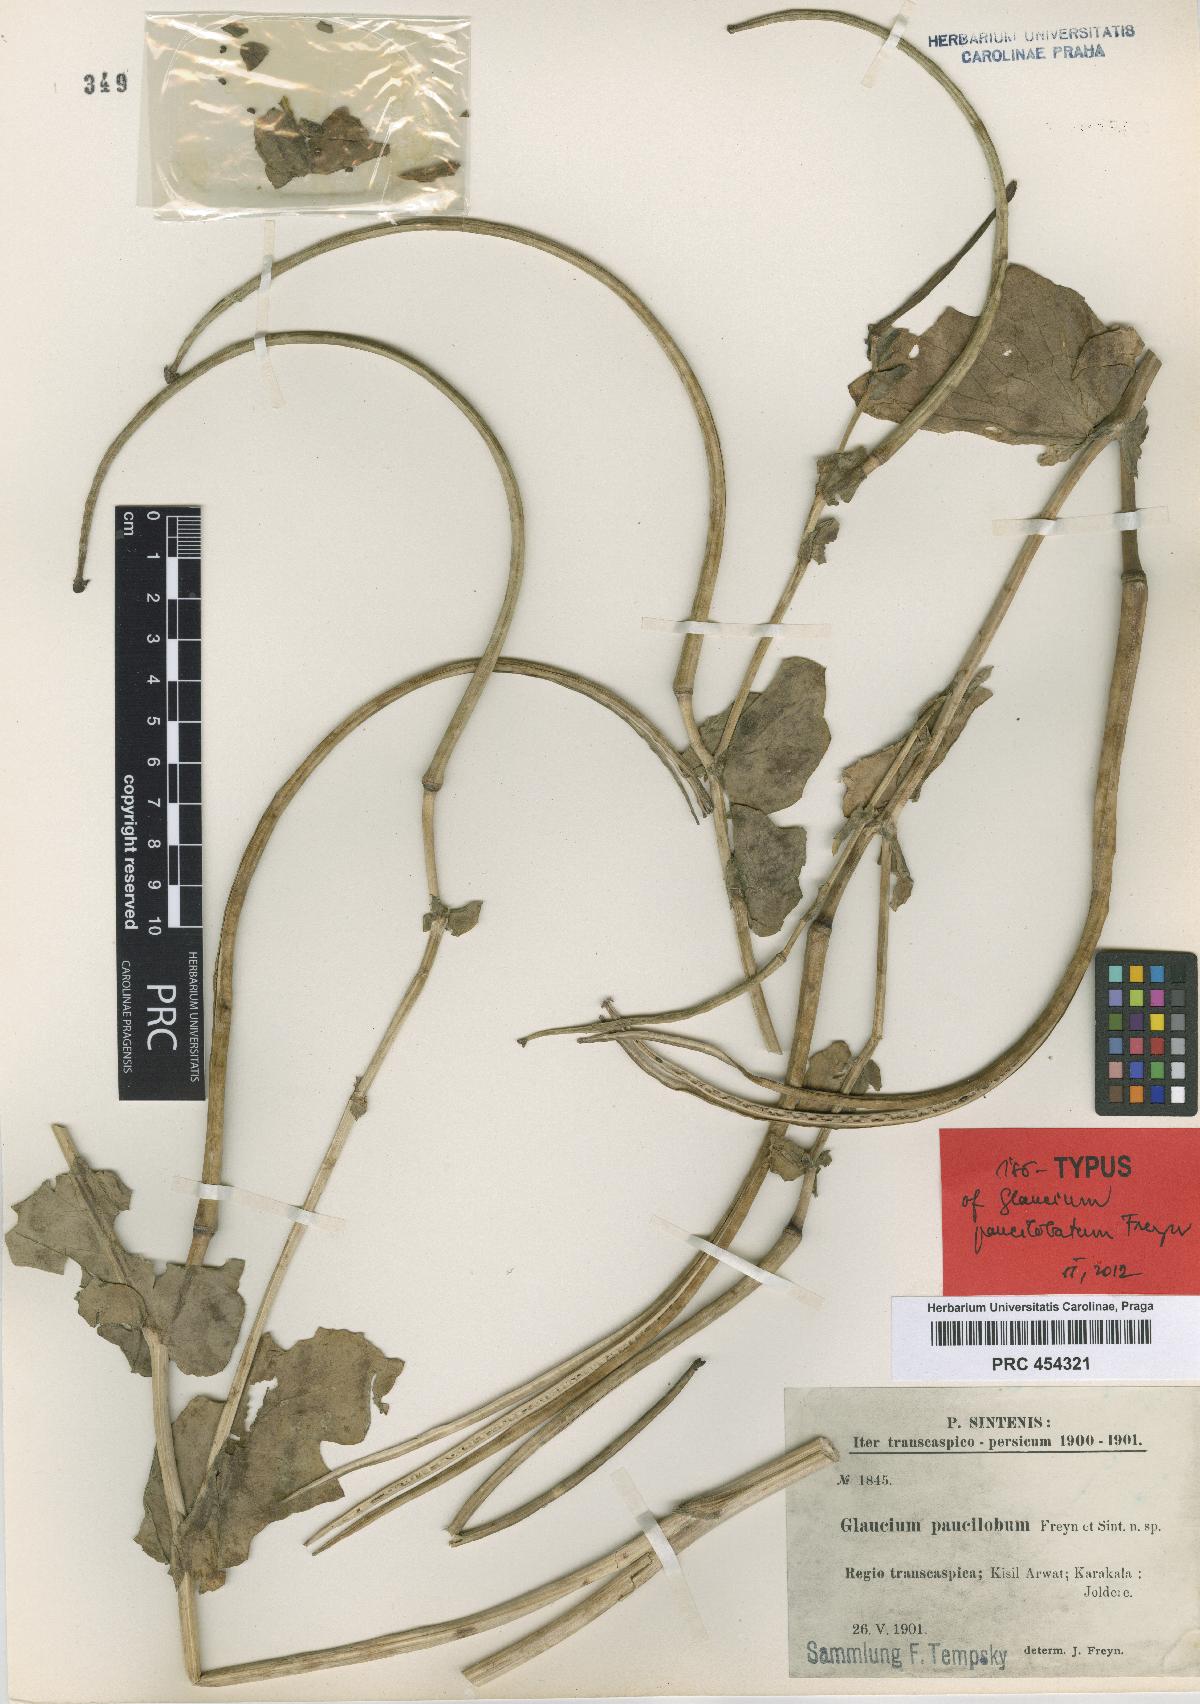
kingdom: Plantae
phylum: Tracheophyta
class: Magnoliopsida
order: Ranunculales
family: Papaveraceae
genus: Glaucium
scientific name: Glaucium paucilobatum
